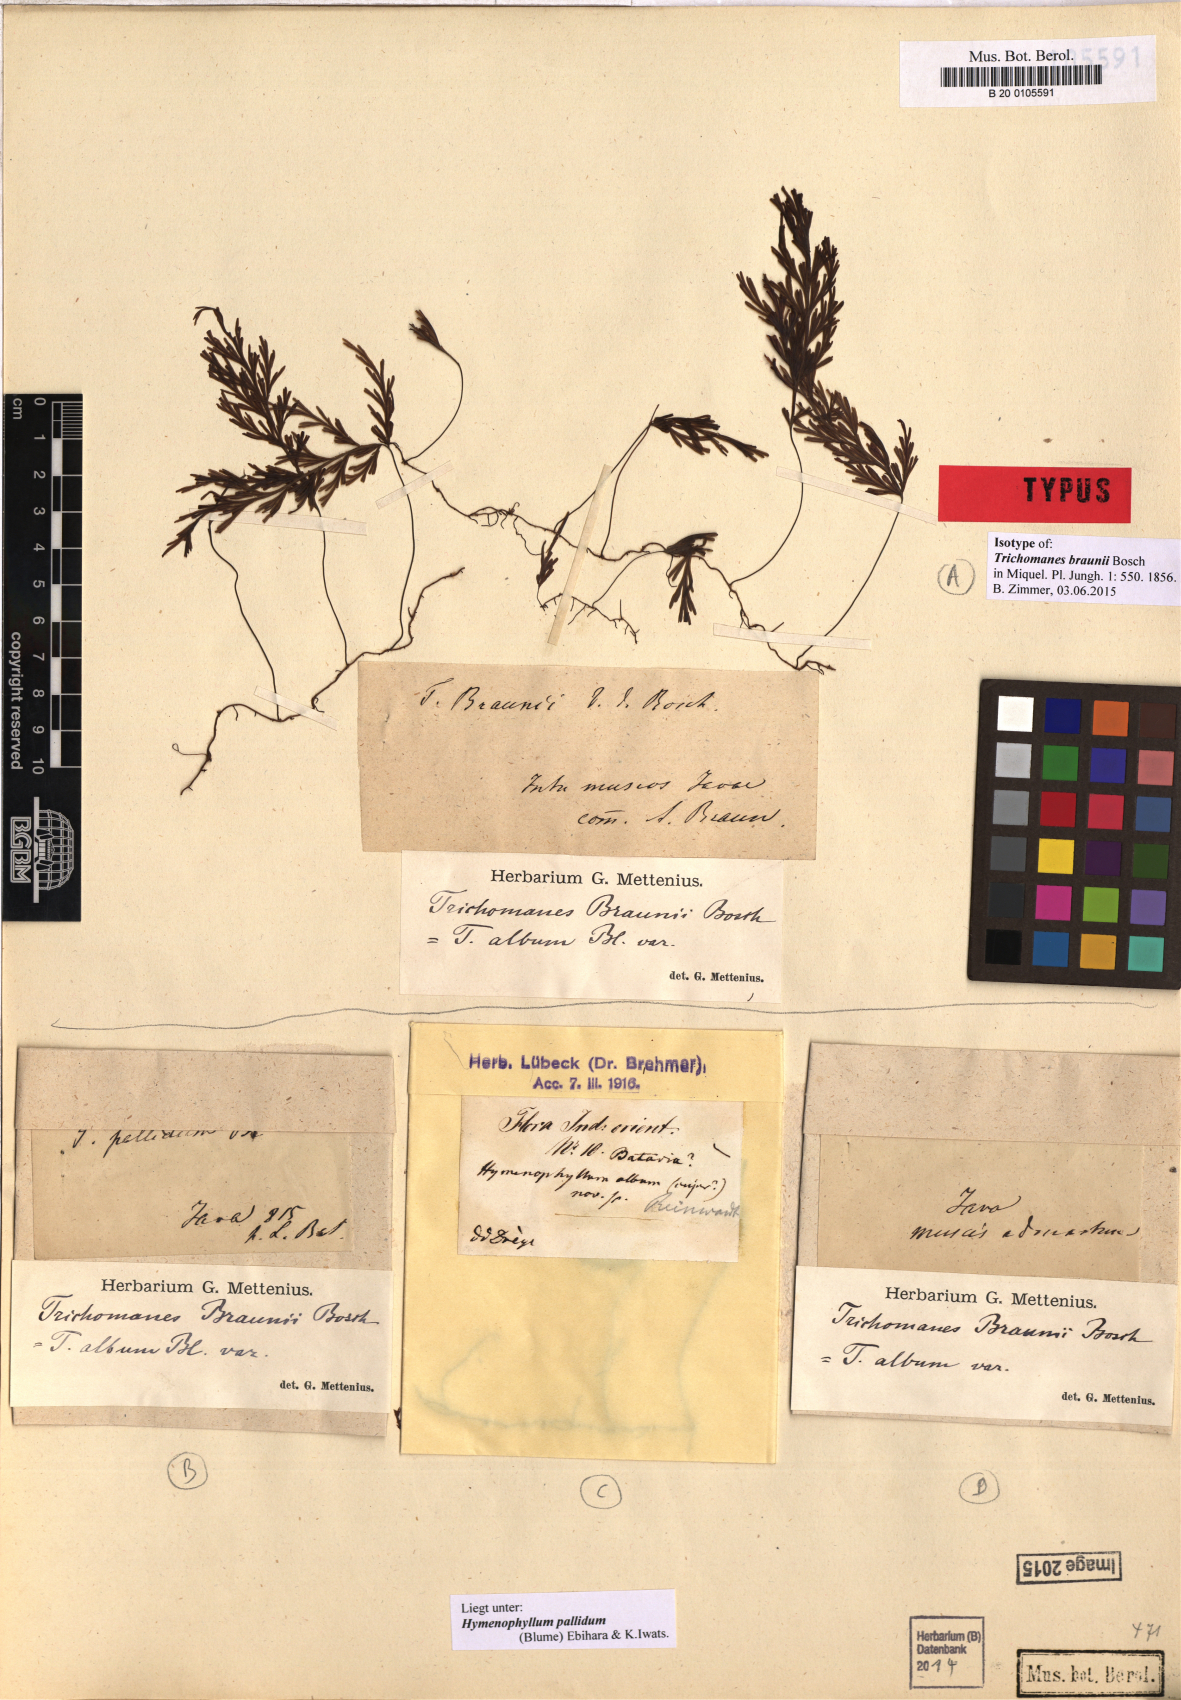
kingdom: Plantae
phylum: Tracheophyta
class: Polypodiopsida
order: Hymenophyllales
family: Hymenophyllaceae
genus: Hymenophyllum
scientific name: Hymenophyllum pallidum
